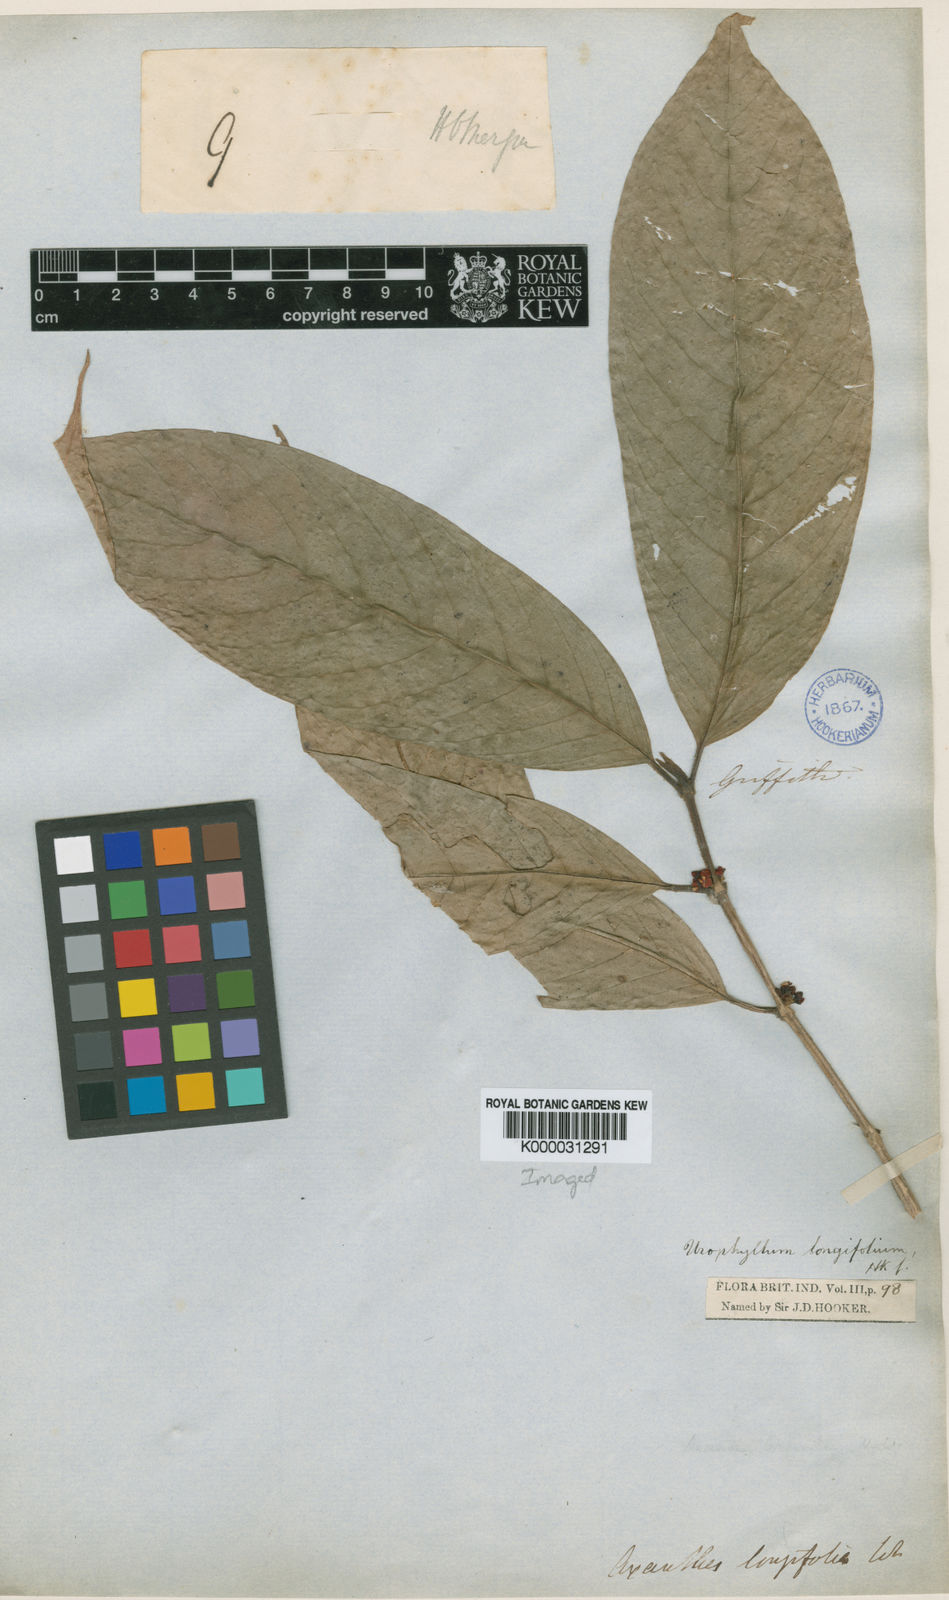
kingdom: Plantae
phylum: Tracheophyta
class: Magnoliopsida
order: Gentianales
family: Rubiaceae
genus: Urophyllum
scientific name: Urophyllum longifolium
